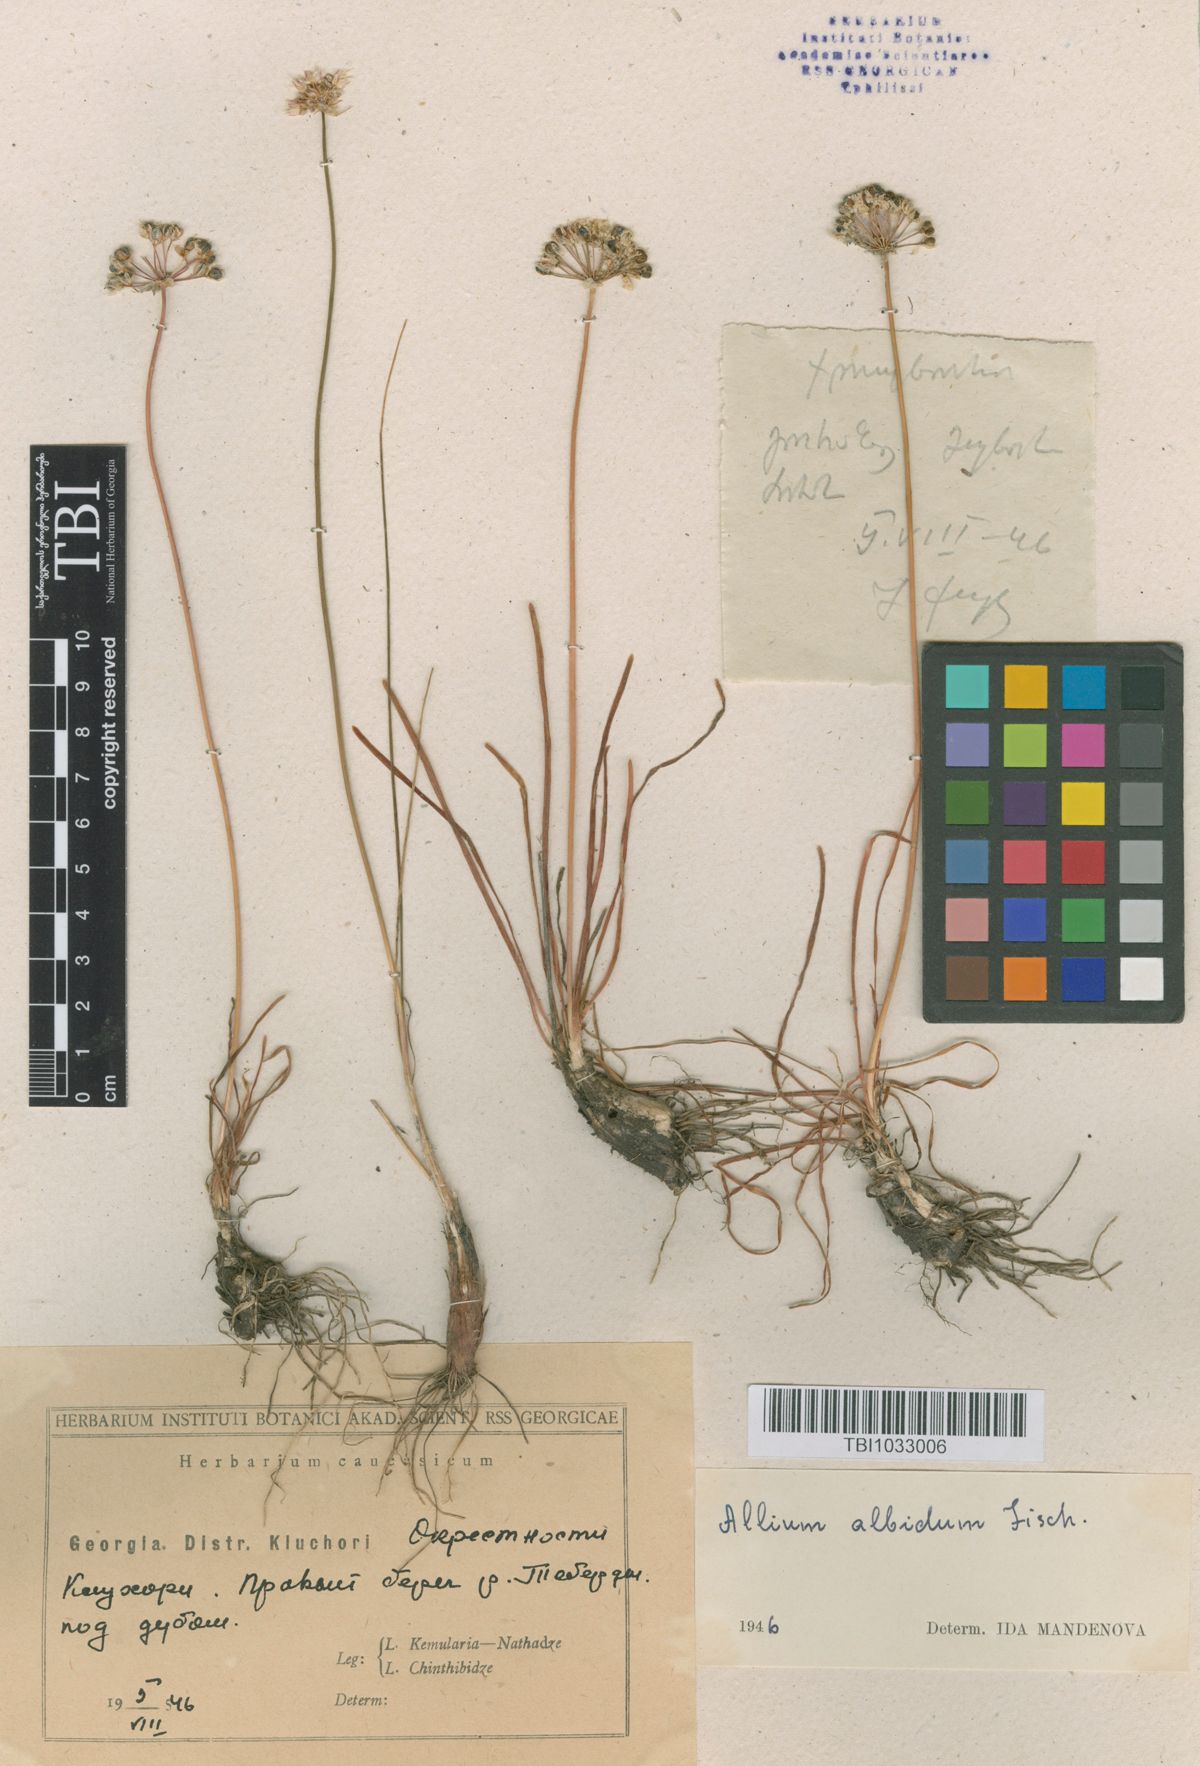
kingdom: Plantae
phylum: Tracheophyta
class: Liliopsida
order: Asparagales
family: Amaryllidaceae
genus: Allium
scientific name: Allium denudatum
